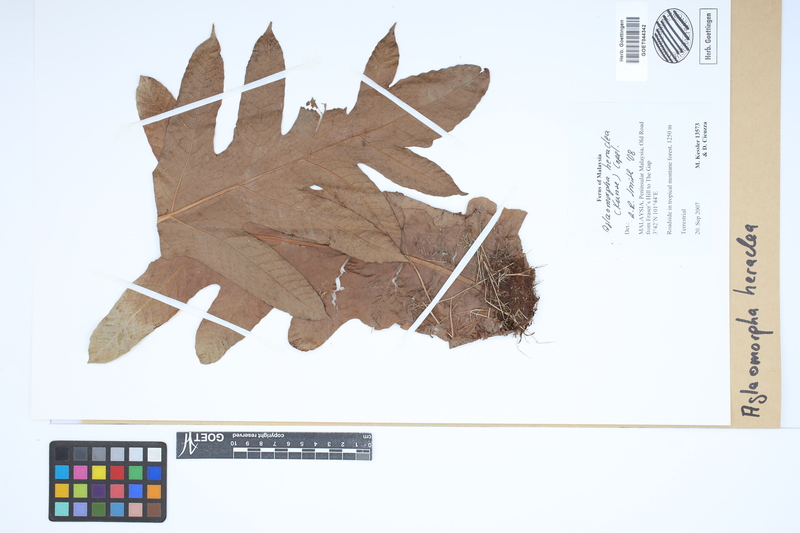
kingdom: Plantae
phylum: Tracheophyta
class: Polypodiopsida
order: Polypodiales
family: Polypodiaceae
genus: Drynaria
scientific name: Drynaria heraclea
